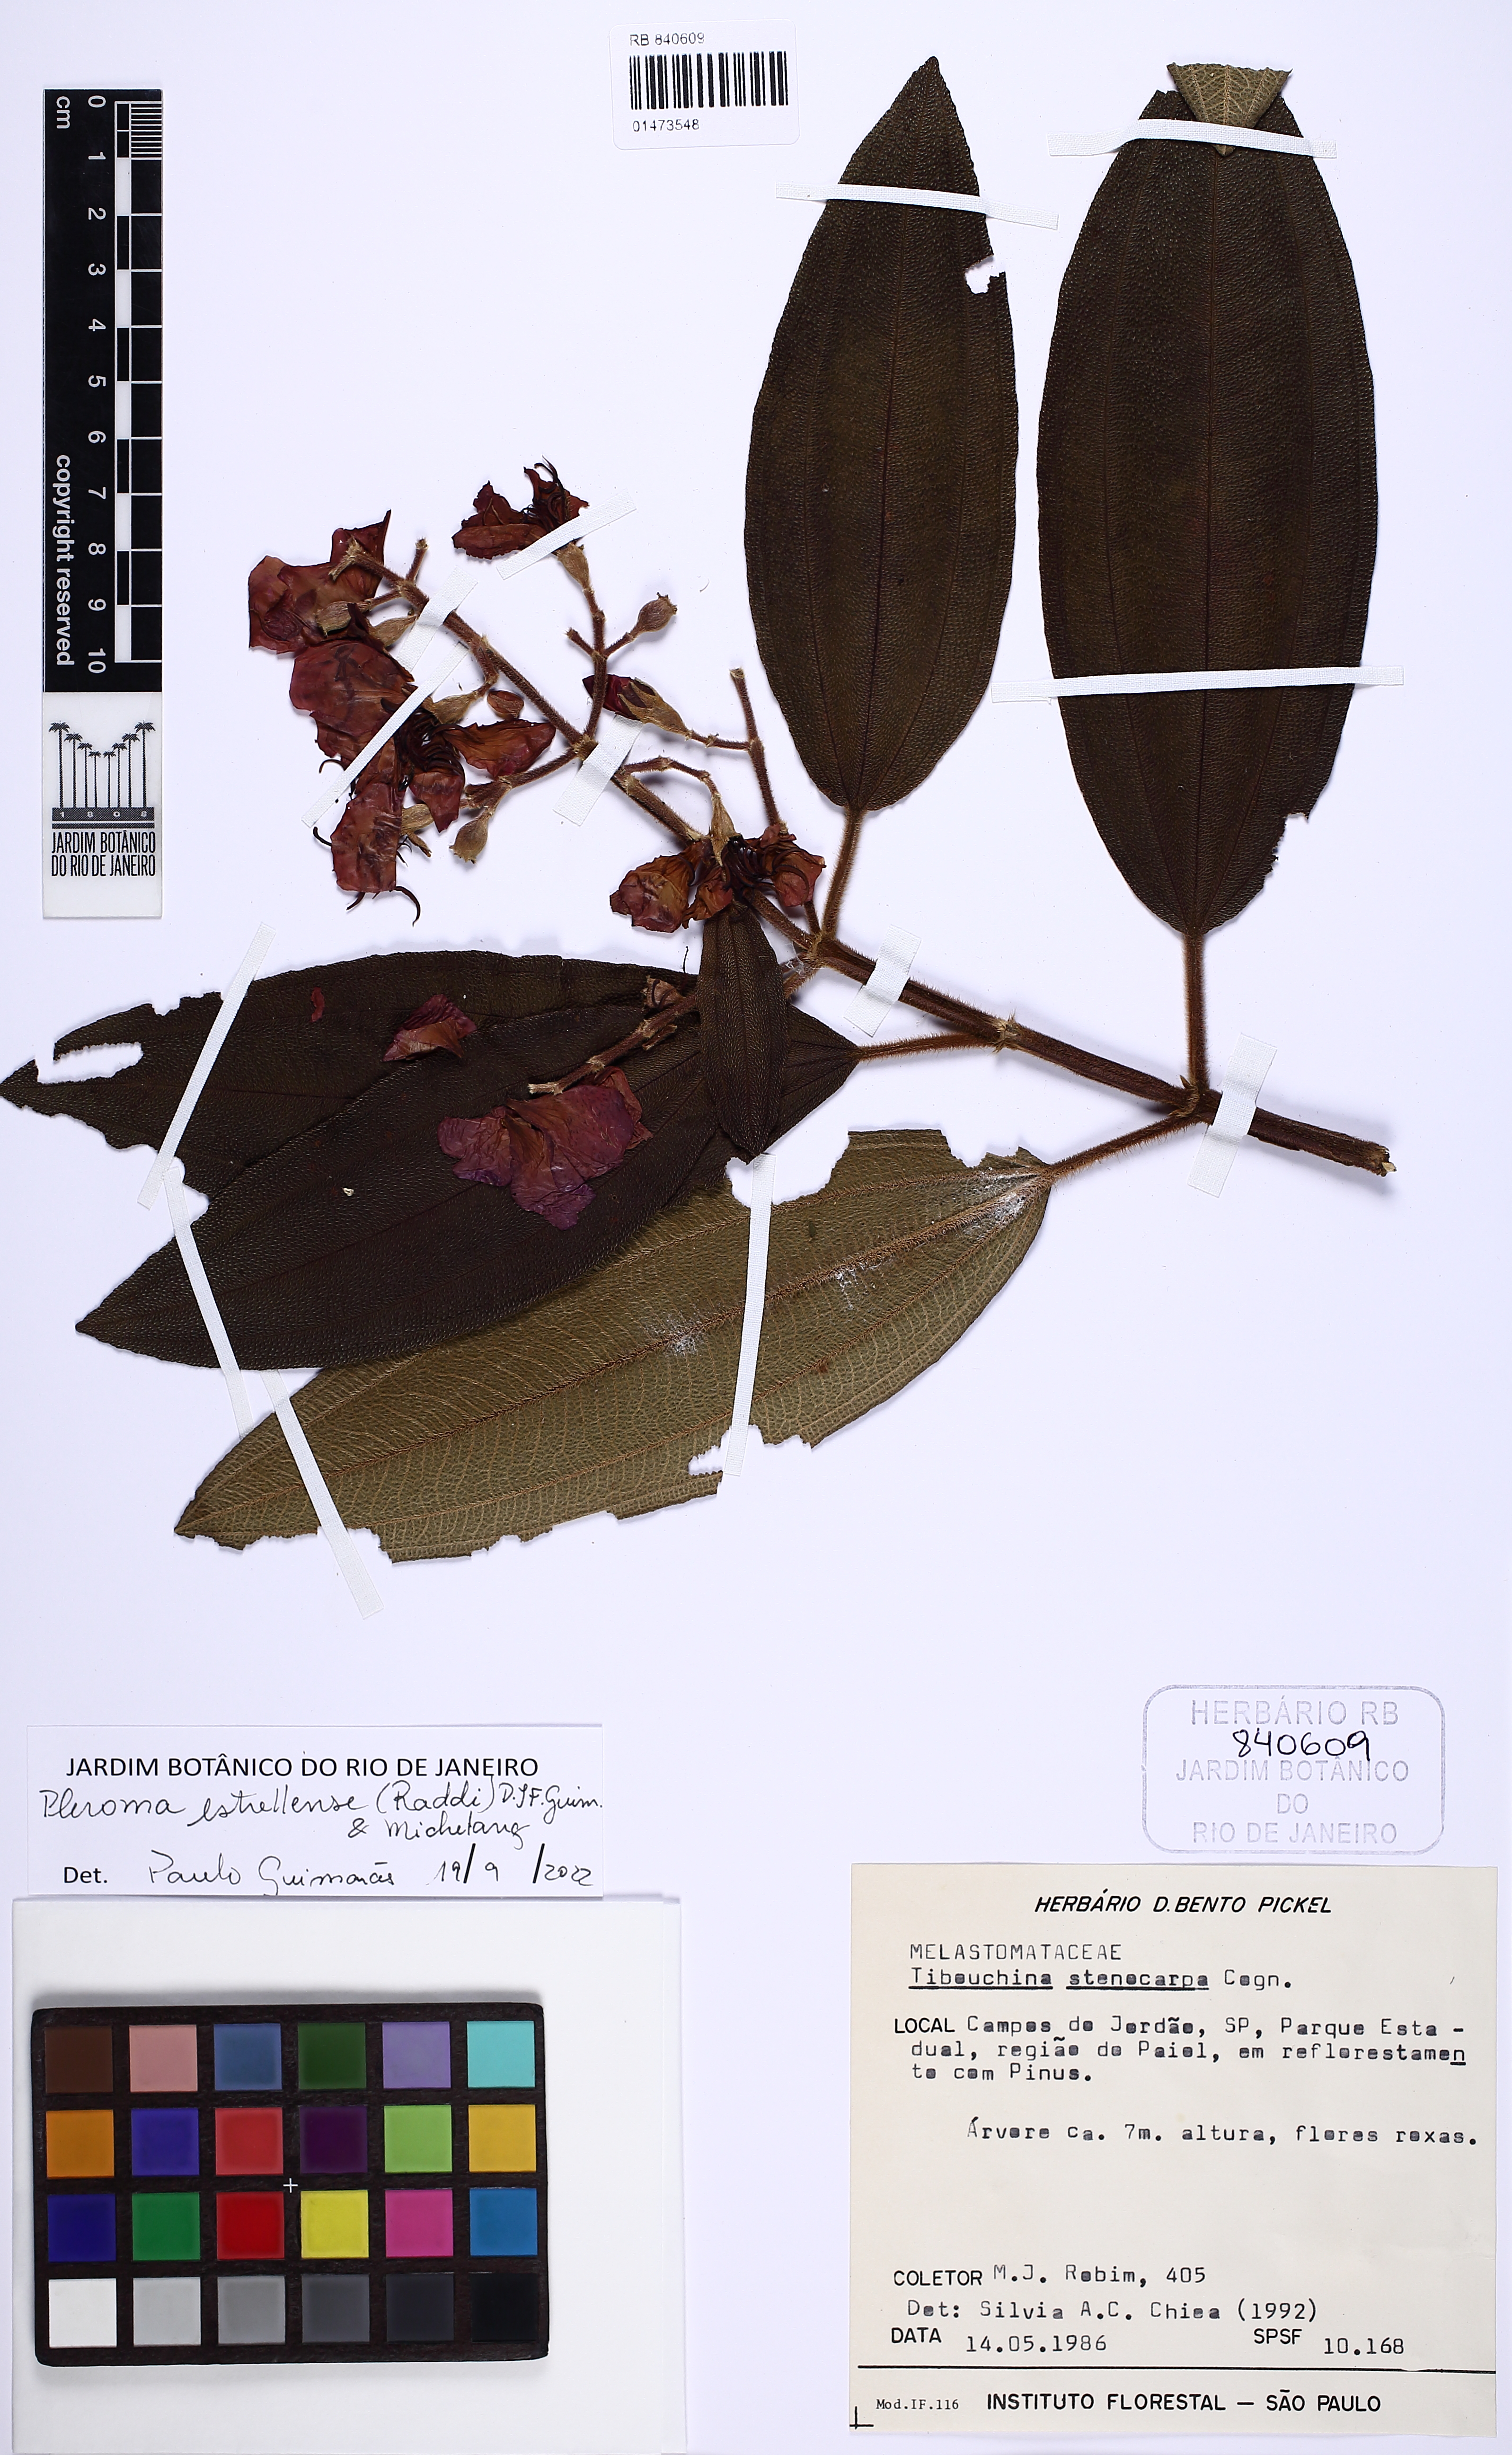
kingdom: Plantae
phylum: Tracheophyta
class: Magnoliopsida
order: Myrtales
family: Melastomataceae
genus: Pleroma
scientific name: Pleroma estrellense
